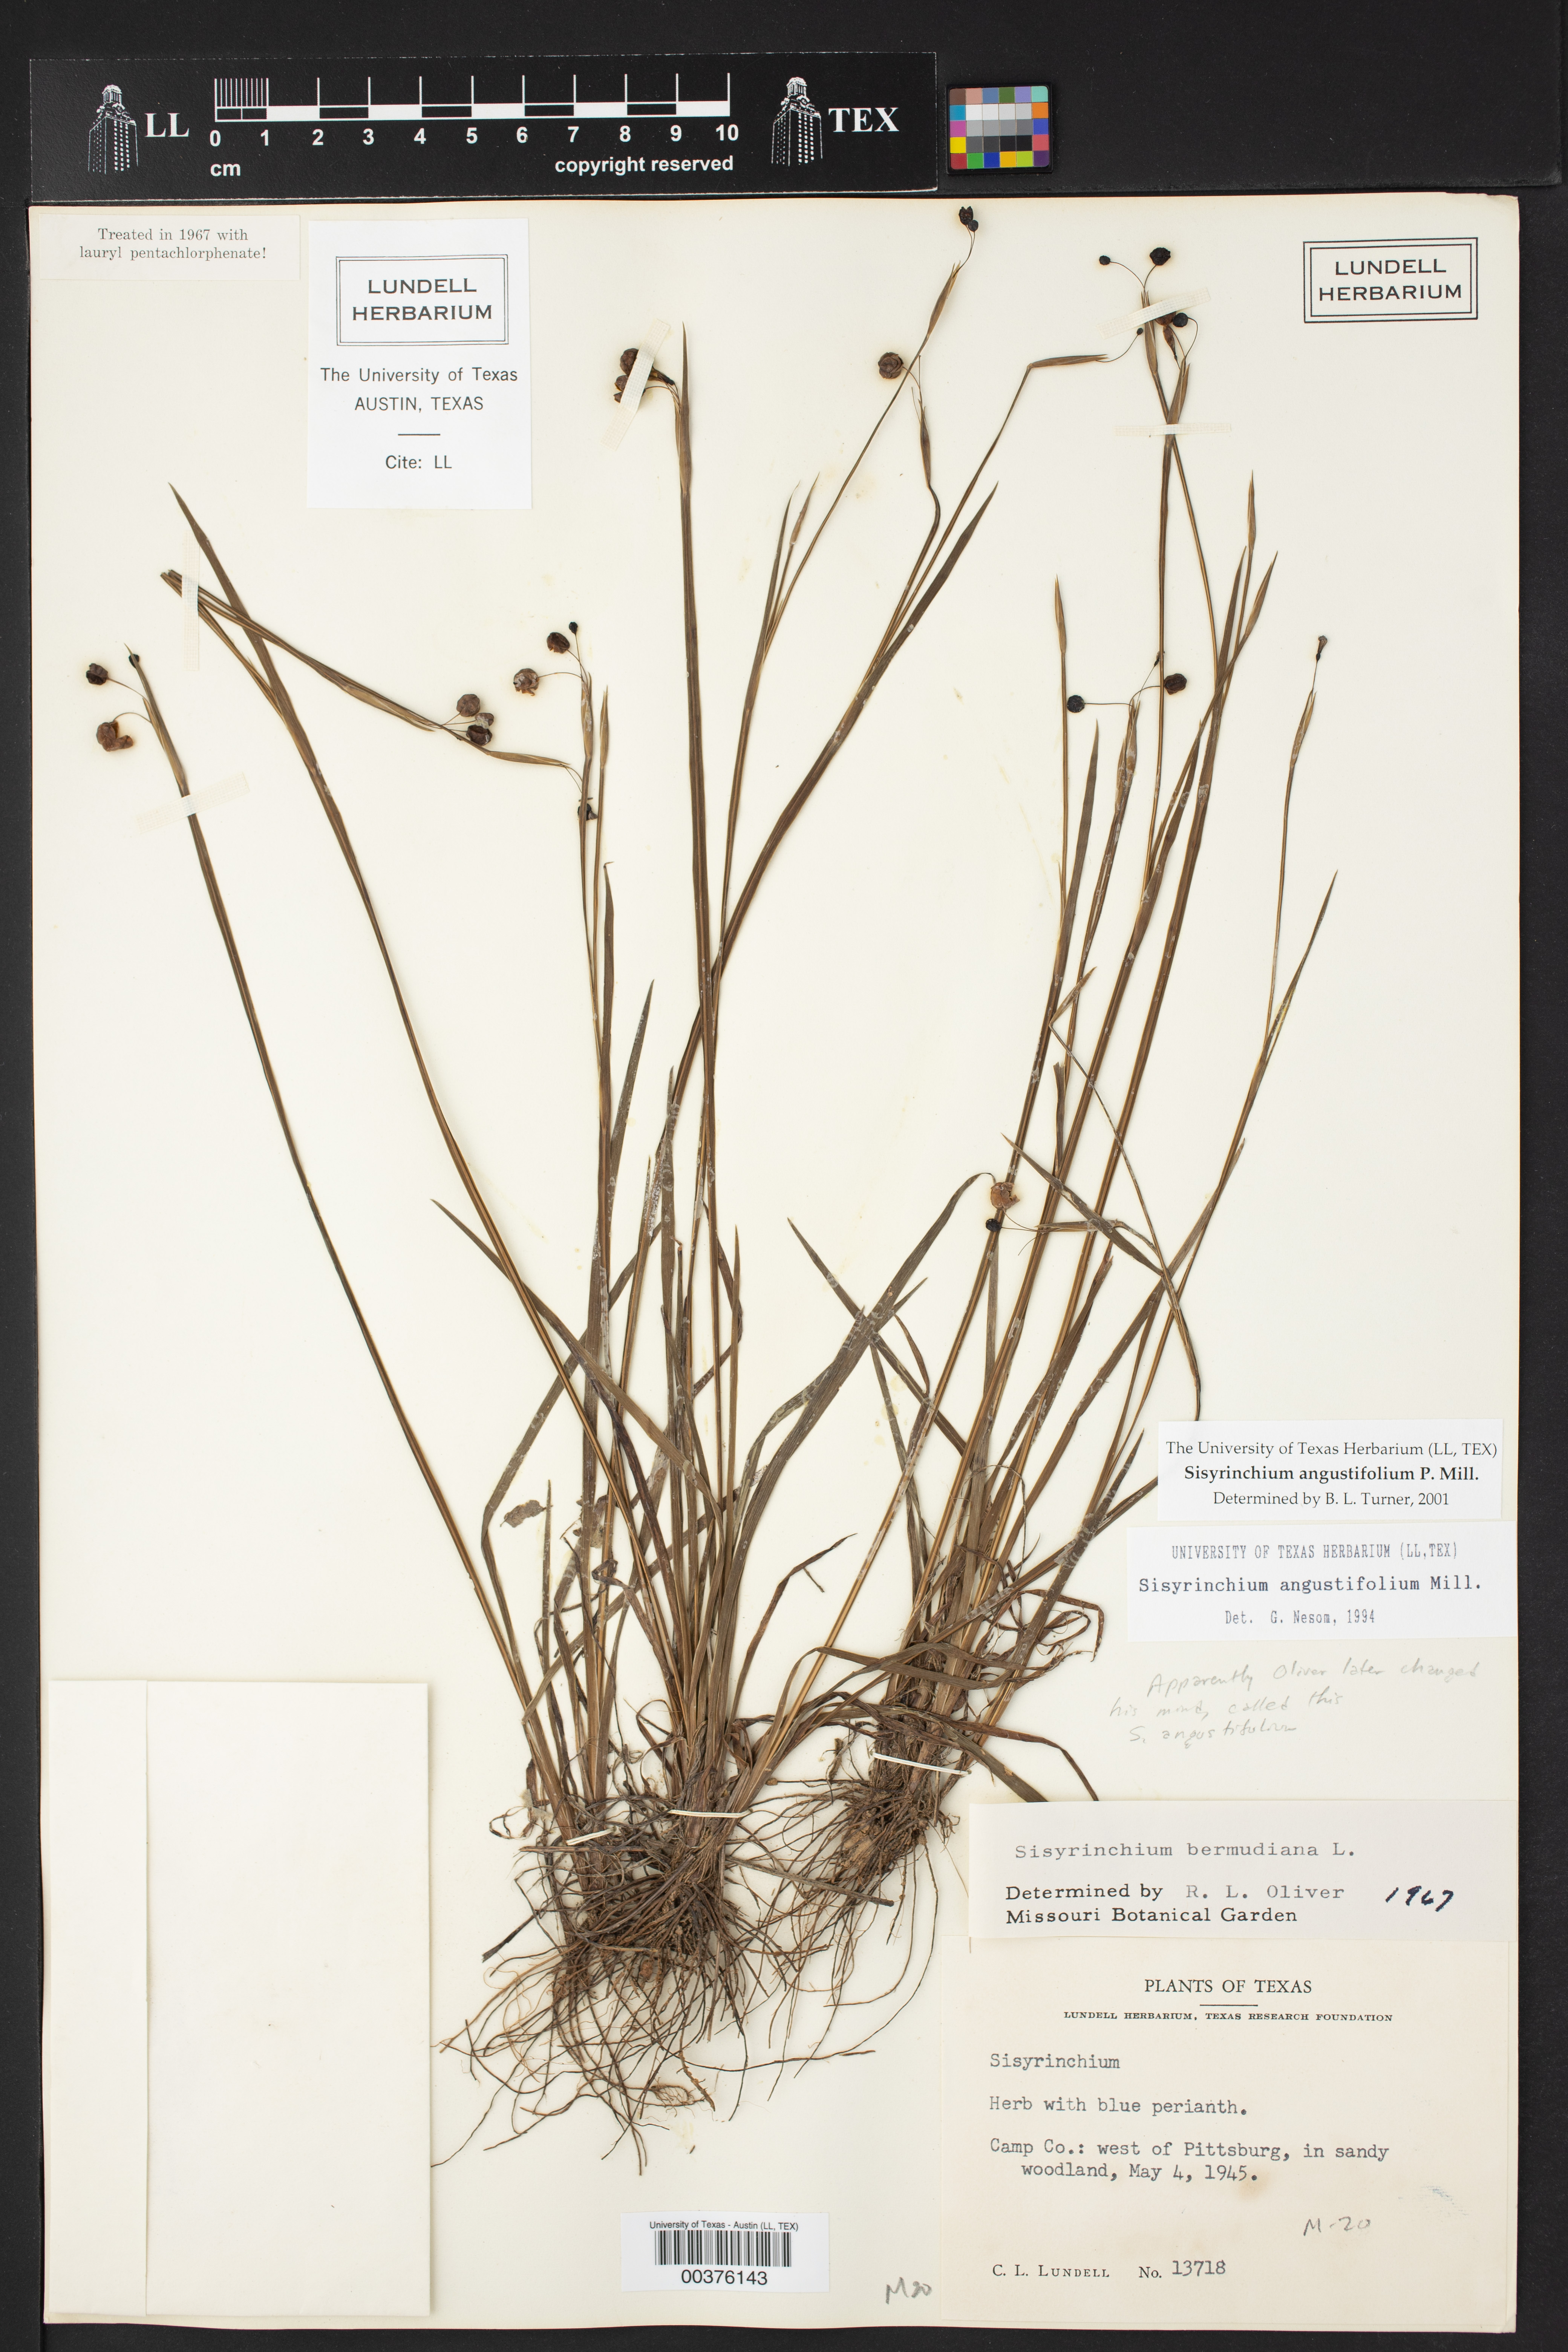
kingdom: Plantae
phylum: Tracheophyta
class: Liliopsida
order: Asparagales
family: Iridaceae
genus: Sisyrinchium
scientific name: Sisyrinchium angustifolium
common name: Narrow-leaf blue-eyed-grass
